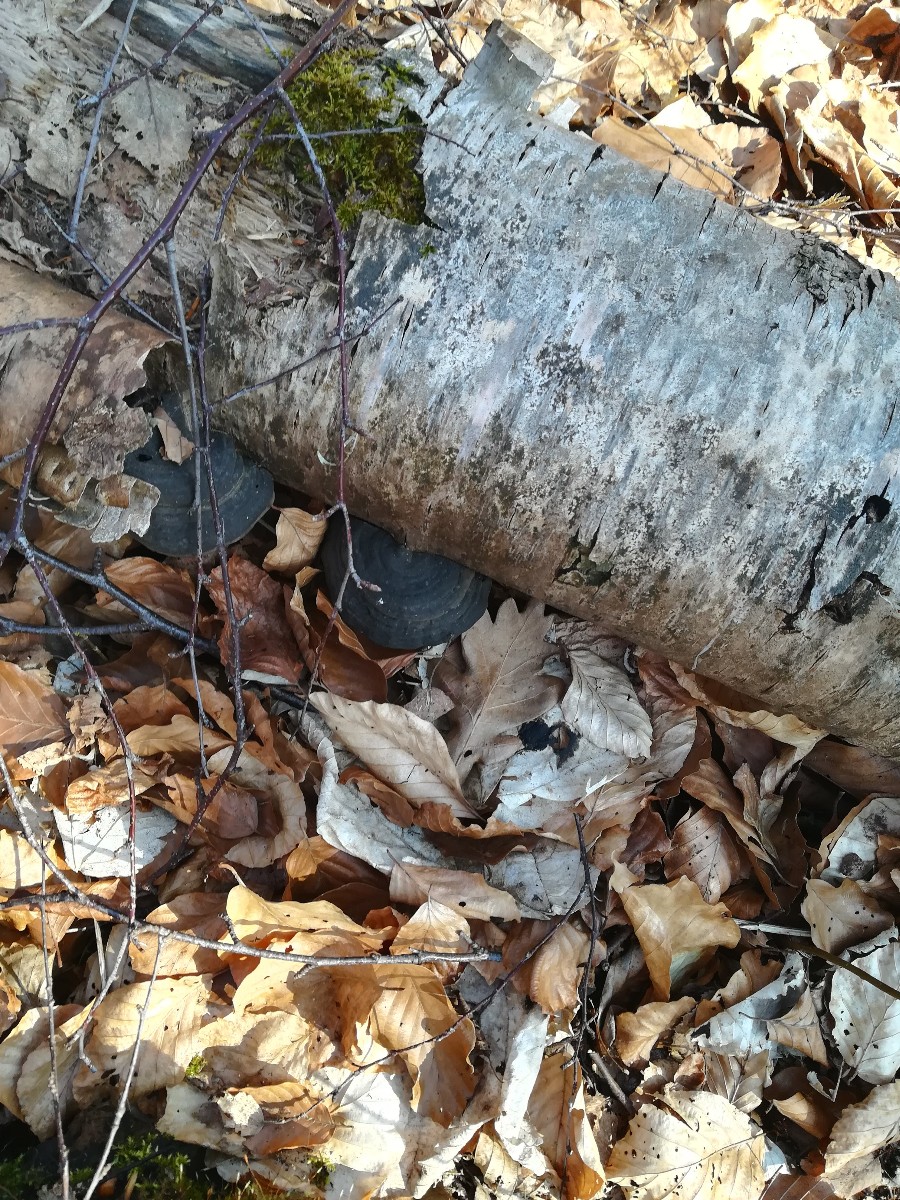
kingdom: Fungi
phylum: Basidiomycota
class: Agaricomycetes
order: Polyporales
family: Polyporaceae
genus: Fomes
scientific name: Fomes fomentarius
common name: tøndersvamp
